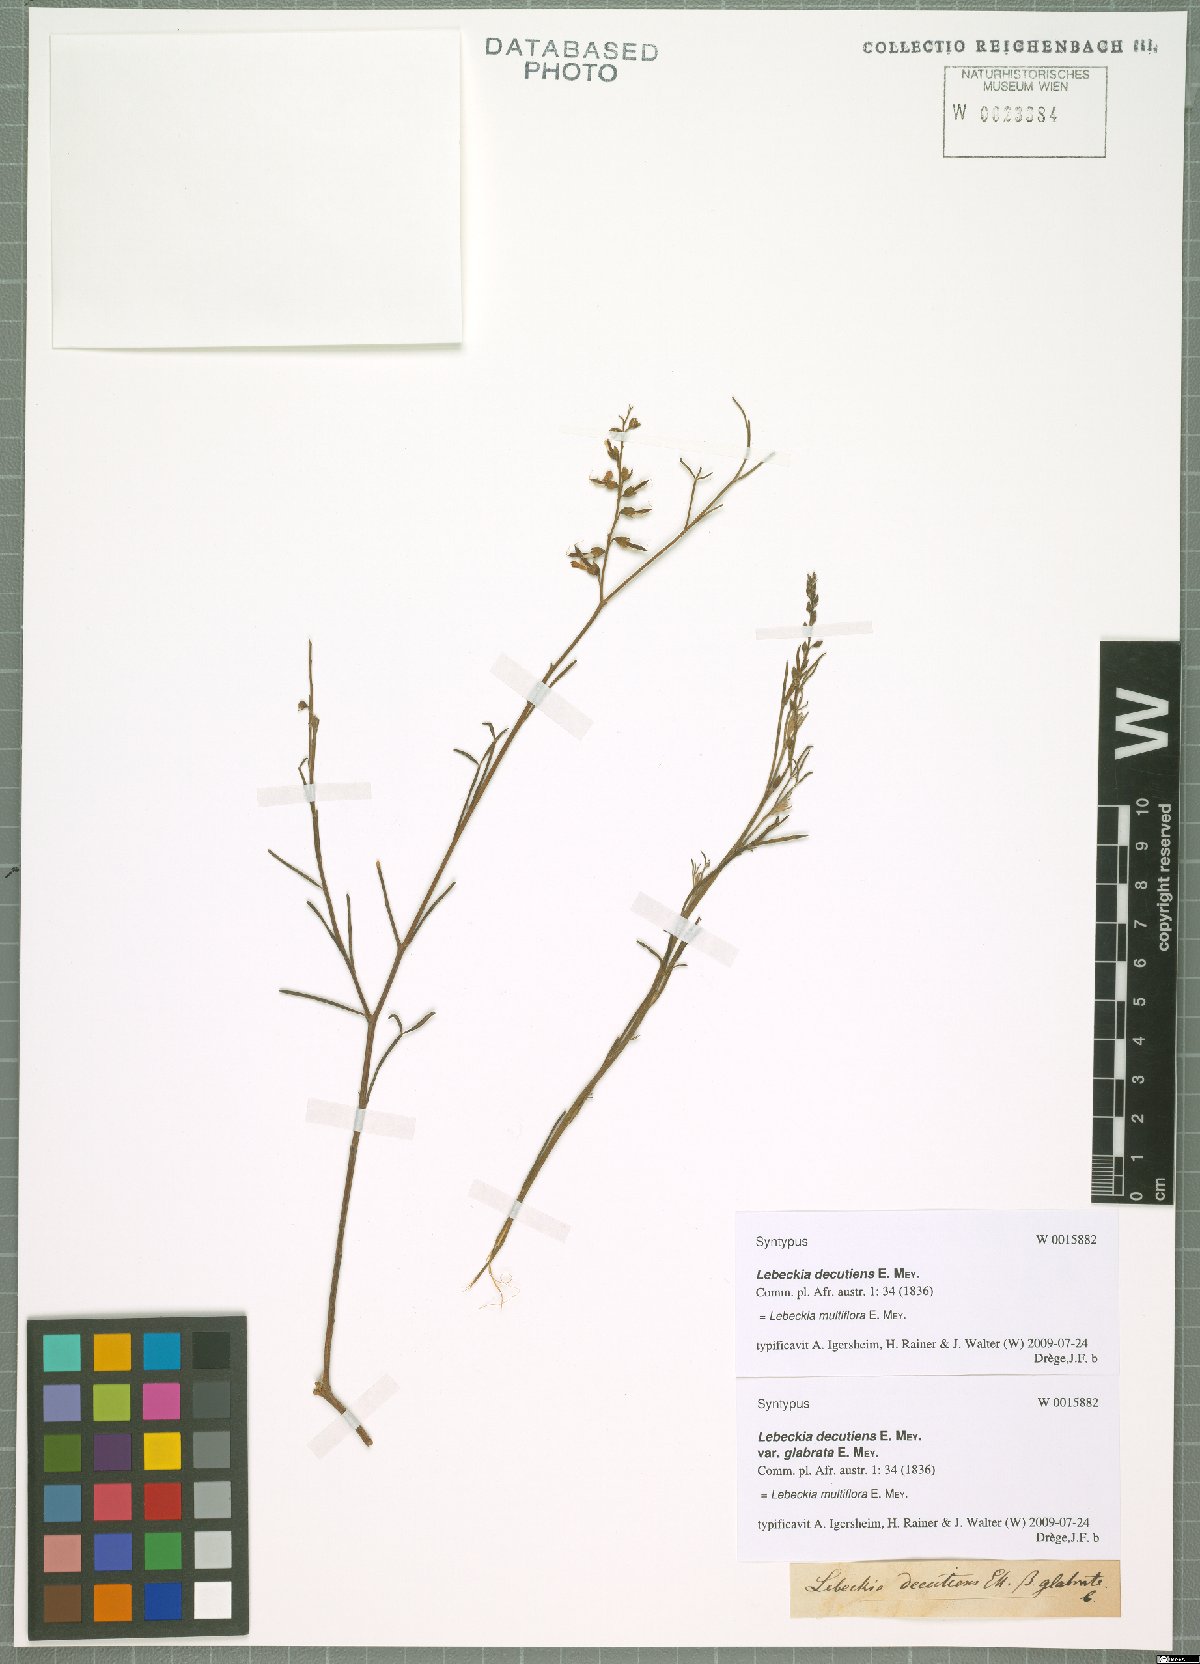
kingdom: Plantae
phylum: Tracheophyta
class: Magnoliopsida
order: Fabales
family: Fabaceae
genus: Calobota
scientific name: Calobota angustifolia
